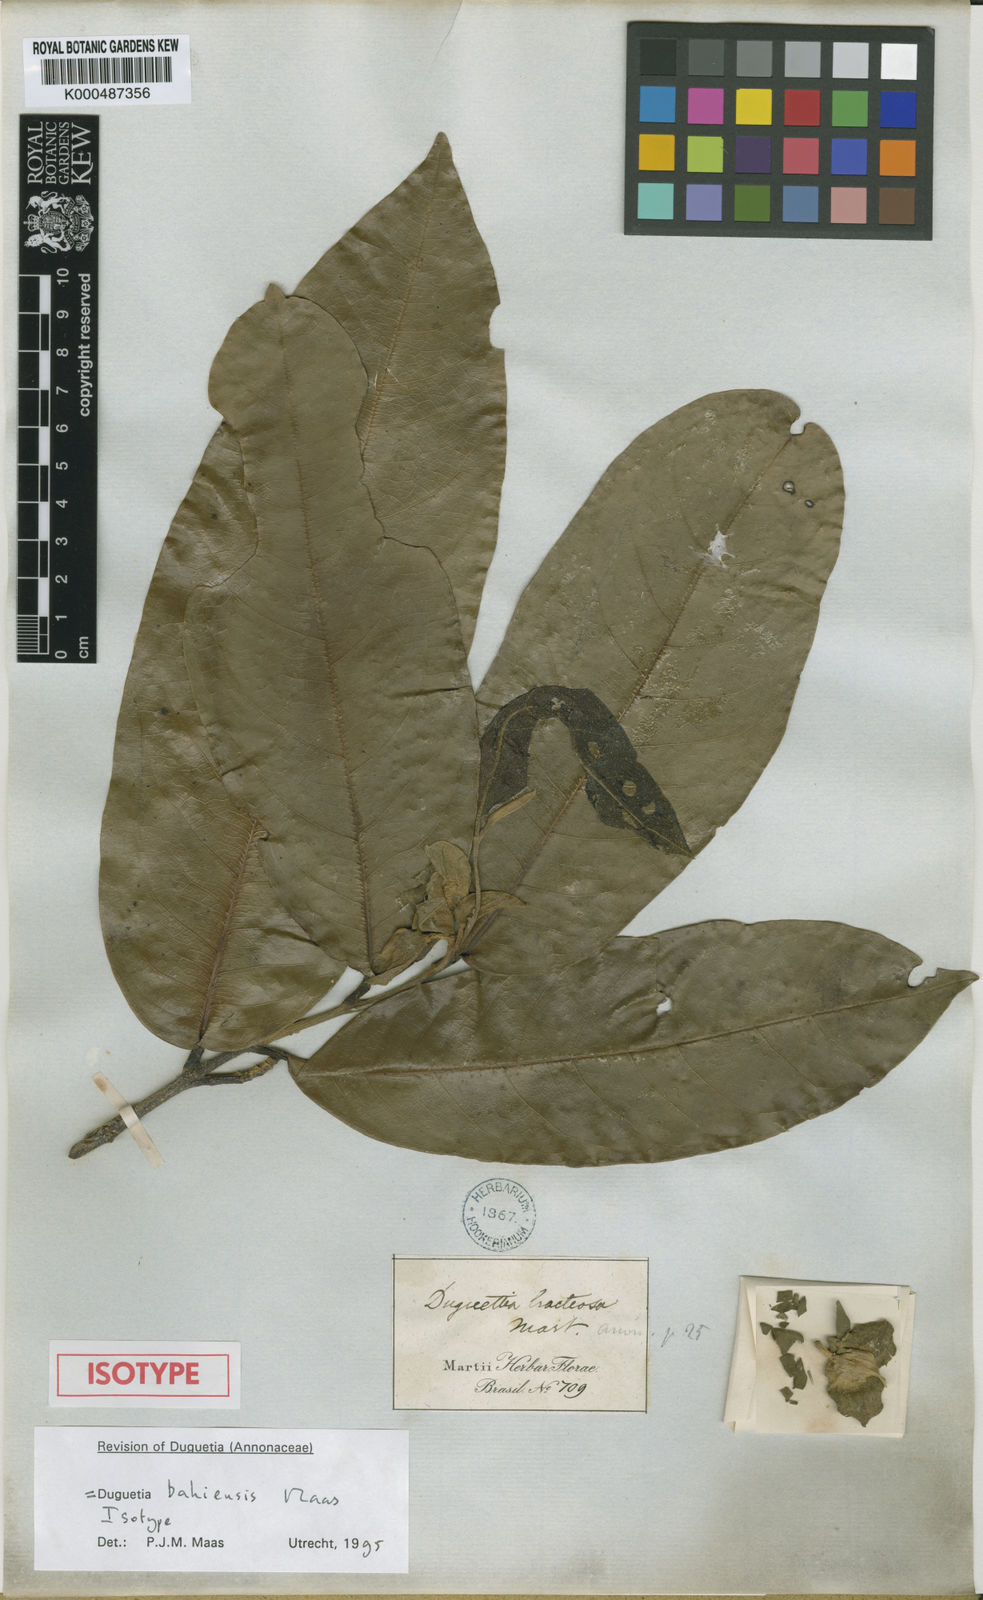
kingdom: Plantae
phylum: Tracheophyta
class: Magnoliopsida
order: Magnoliales
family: Annonaceae
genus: Duguetia
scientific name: Duguetia bahiensis
